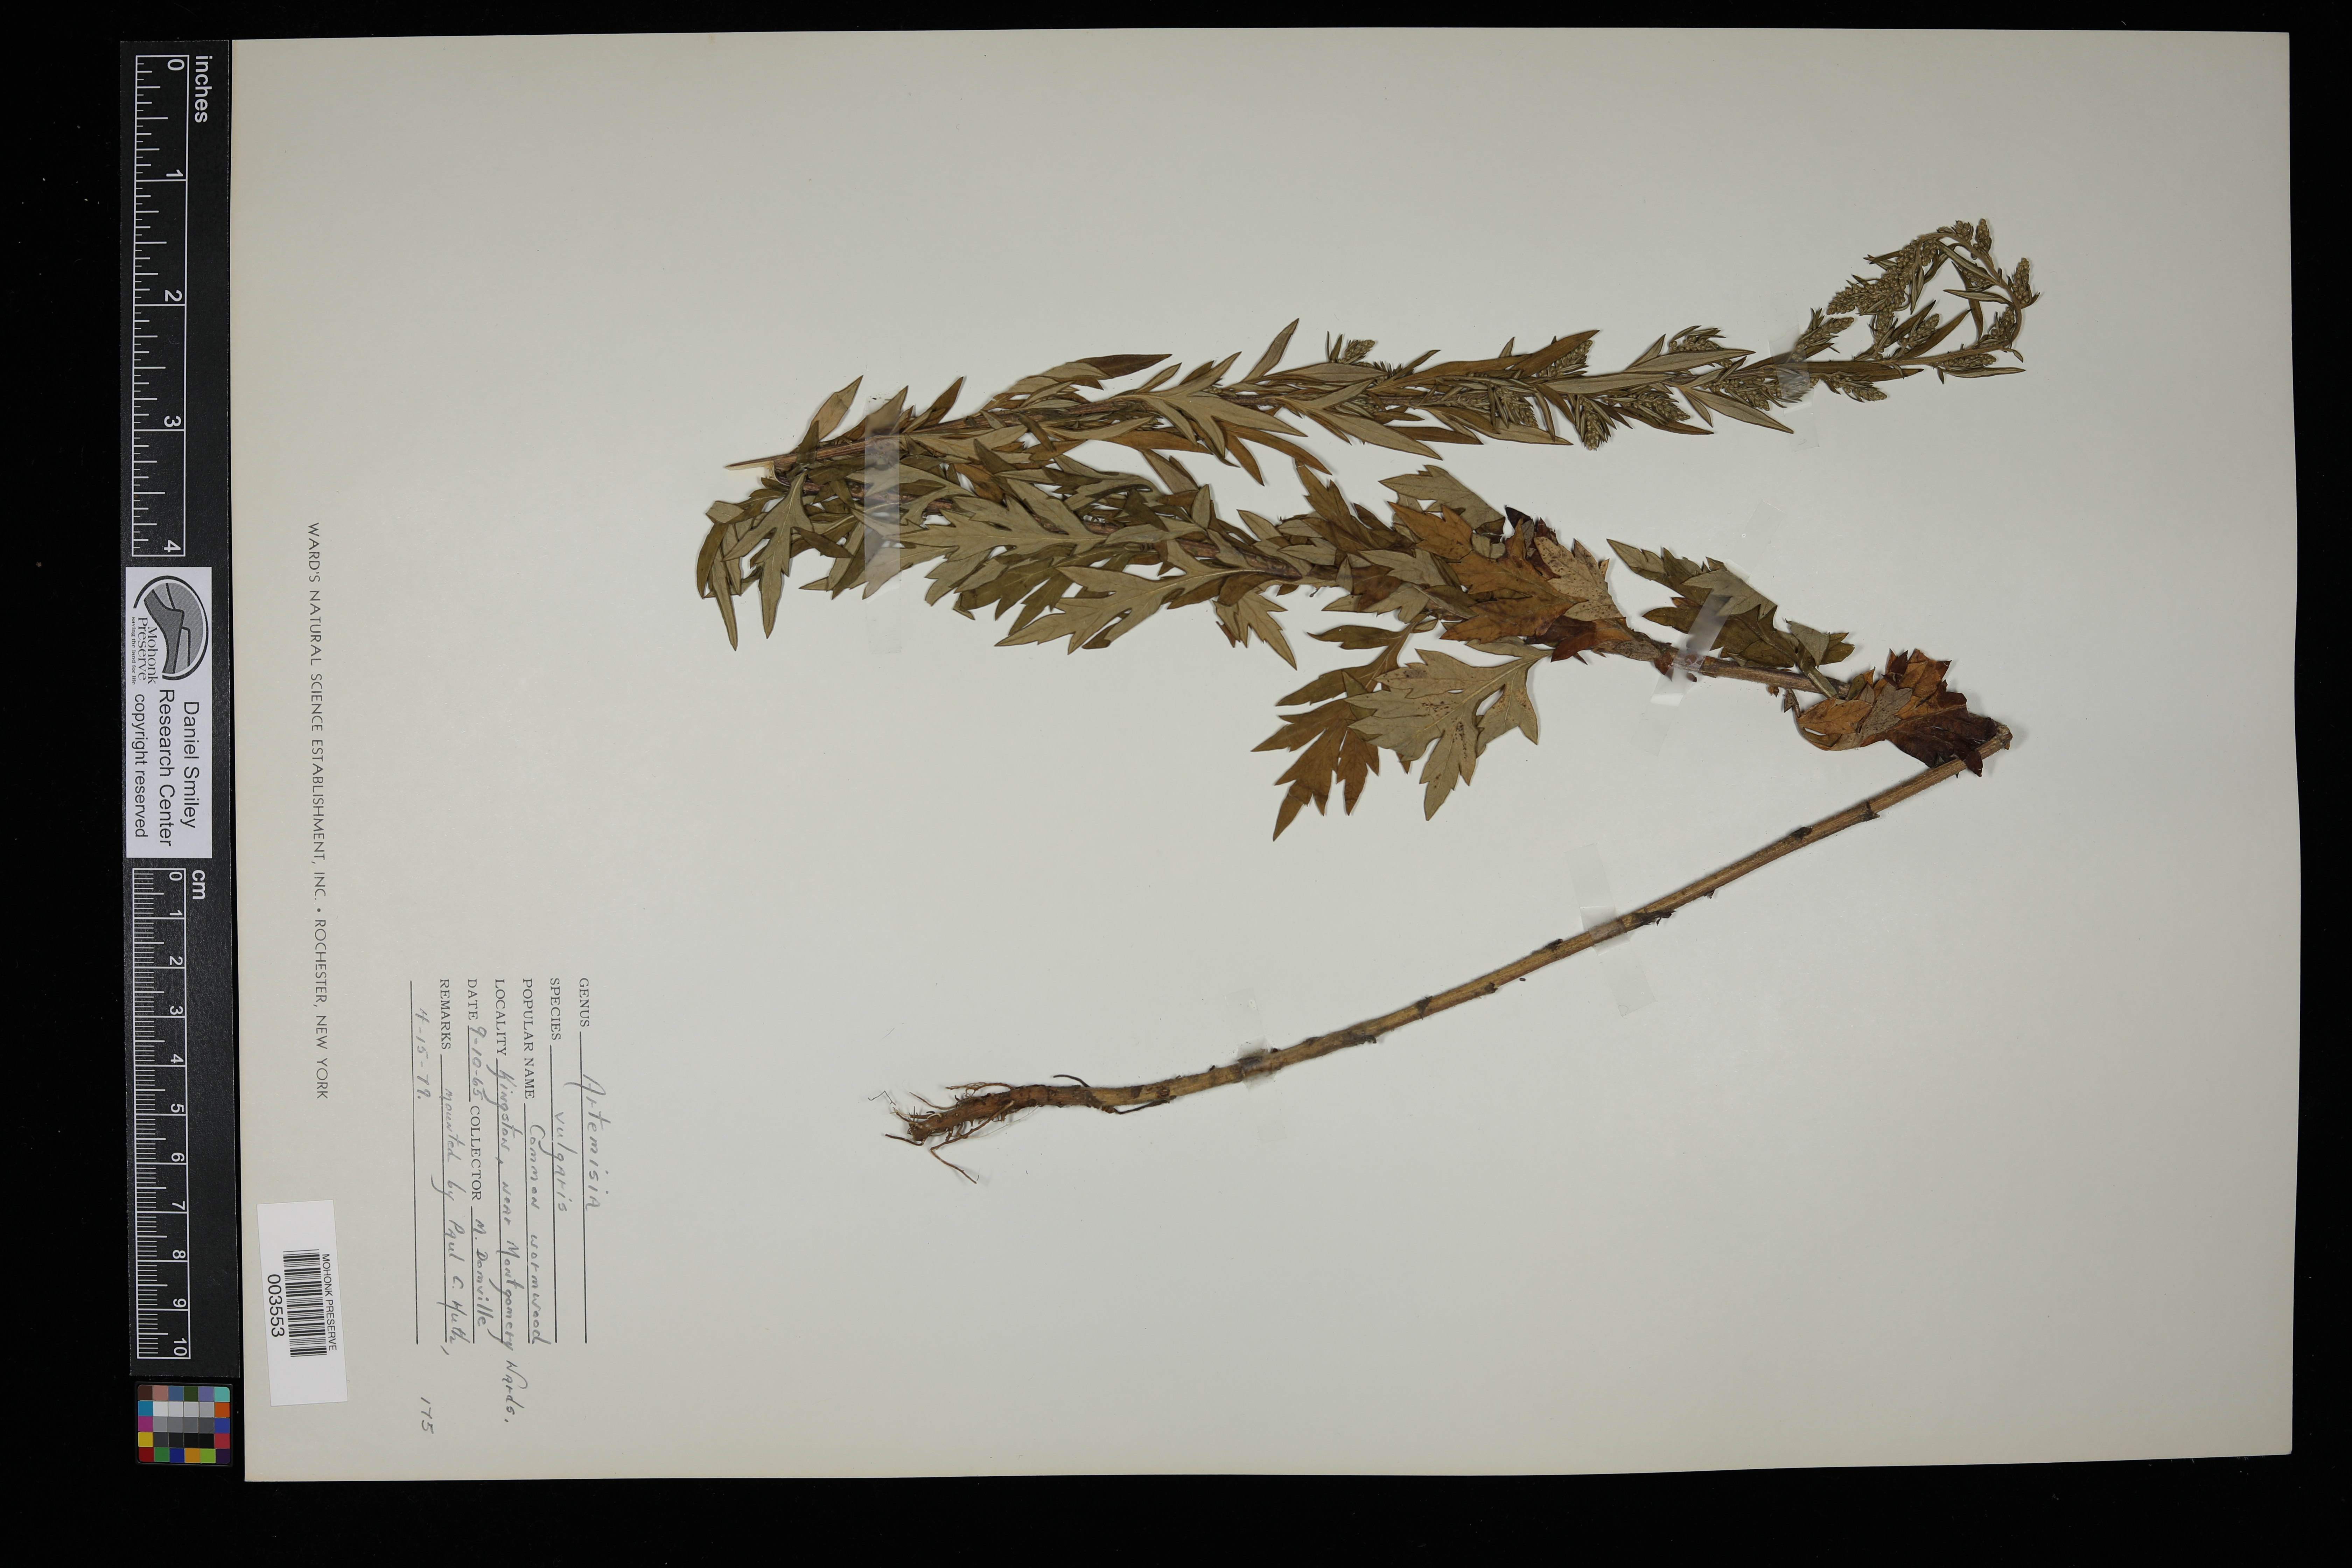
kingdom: Plantae
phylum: Tracheophyta
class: Magnoliopsida
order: Asterales
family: Asteraceae
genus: Artemisia
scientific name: Artemisia vulgaris
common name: Mugwort
